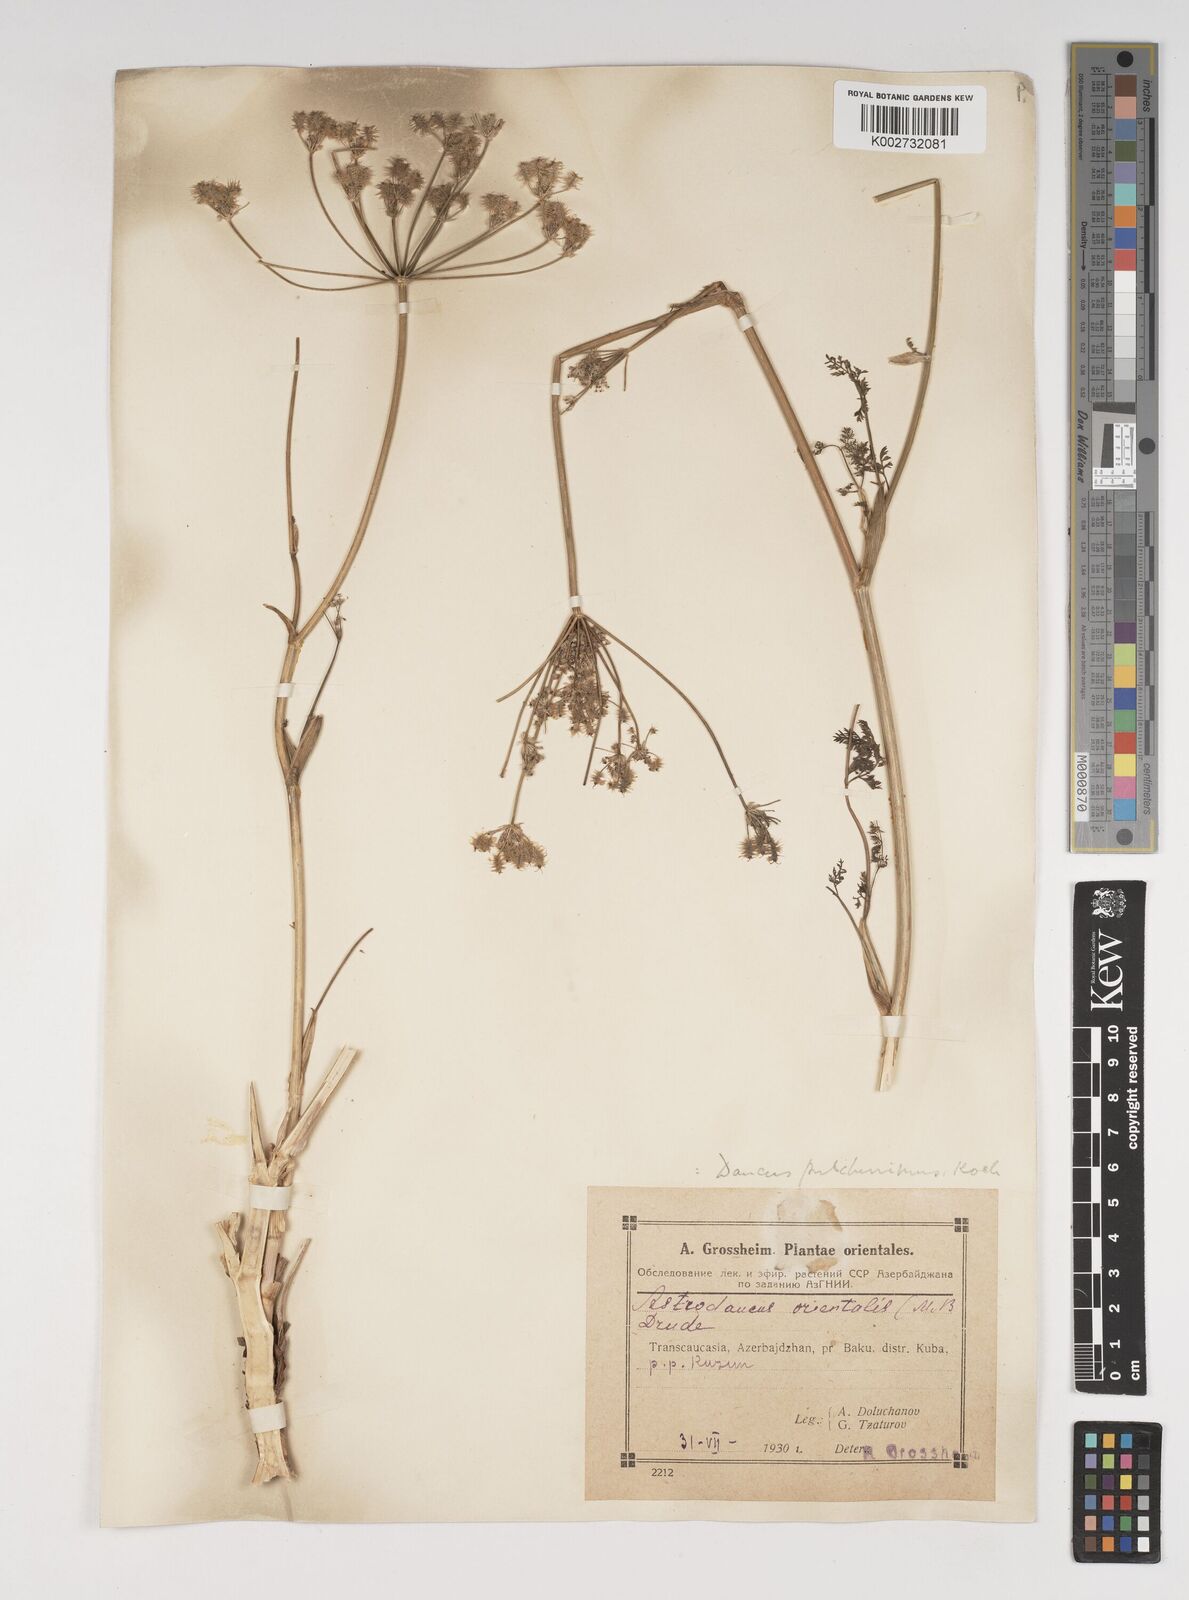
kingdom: Plantae
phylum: Tracheophyta
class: Magnoliopsida
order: Apiales
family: Apiaceae
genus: Astrodaucus
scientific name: Astrodaucus
